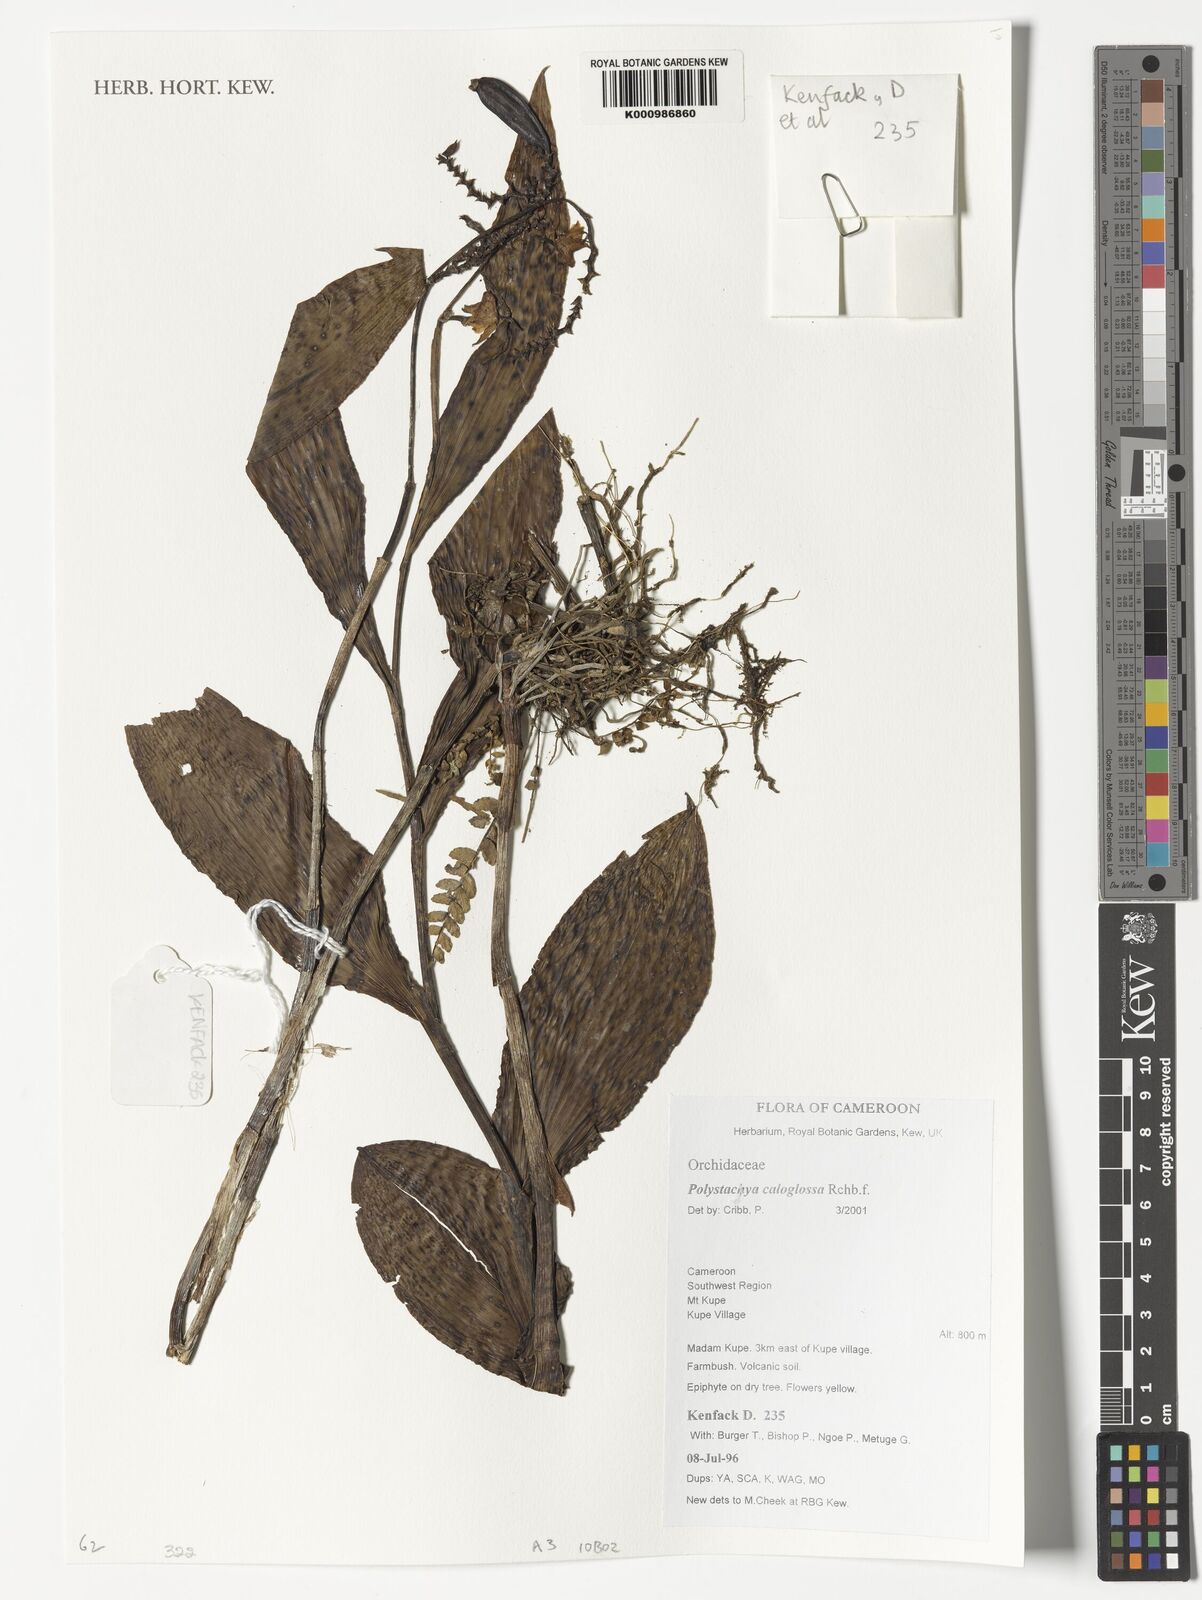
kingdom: Plantae
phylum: Tracheophyta
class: Liliopsida
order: Asparagales
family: Orchidaceae
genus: Polystachya
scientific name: Polystachya caloglossa
